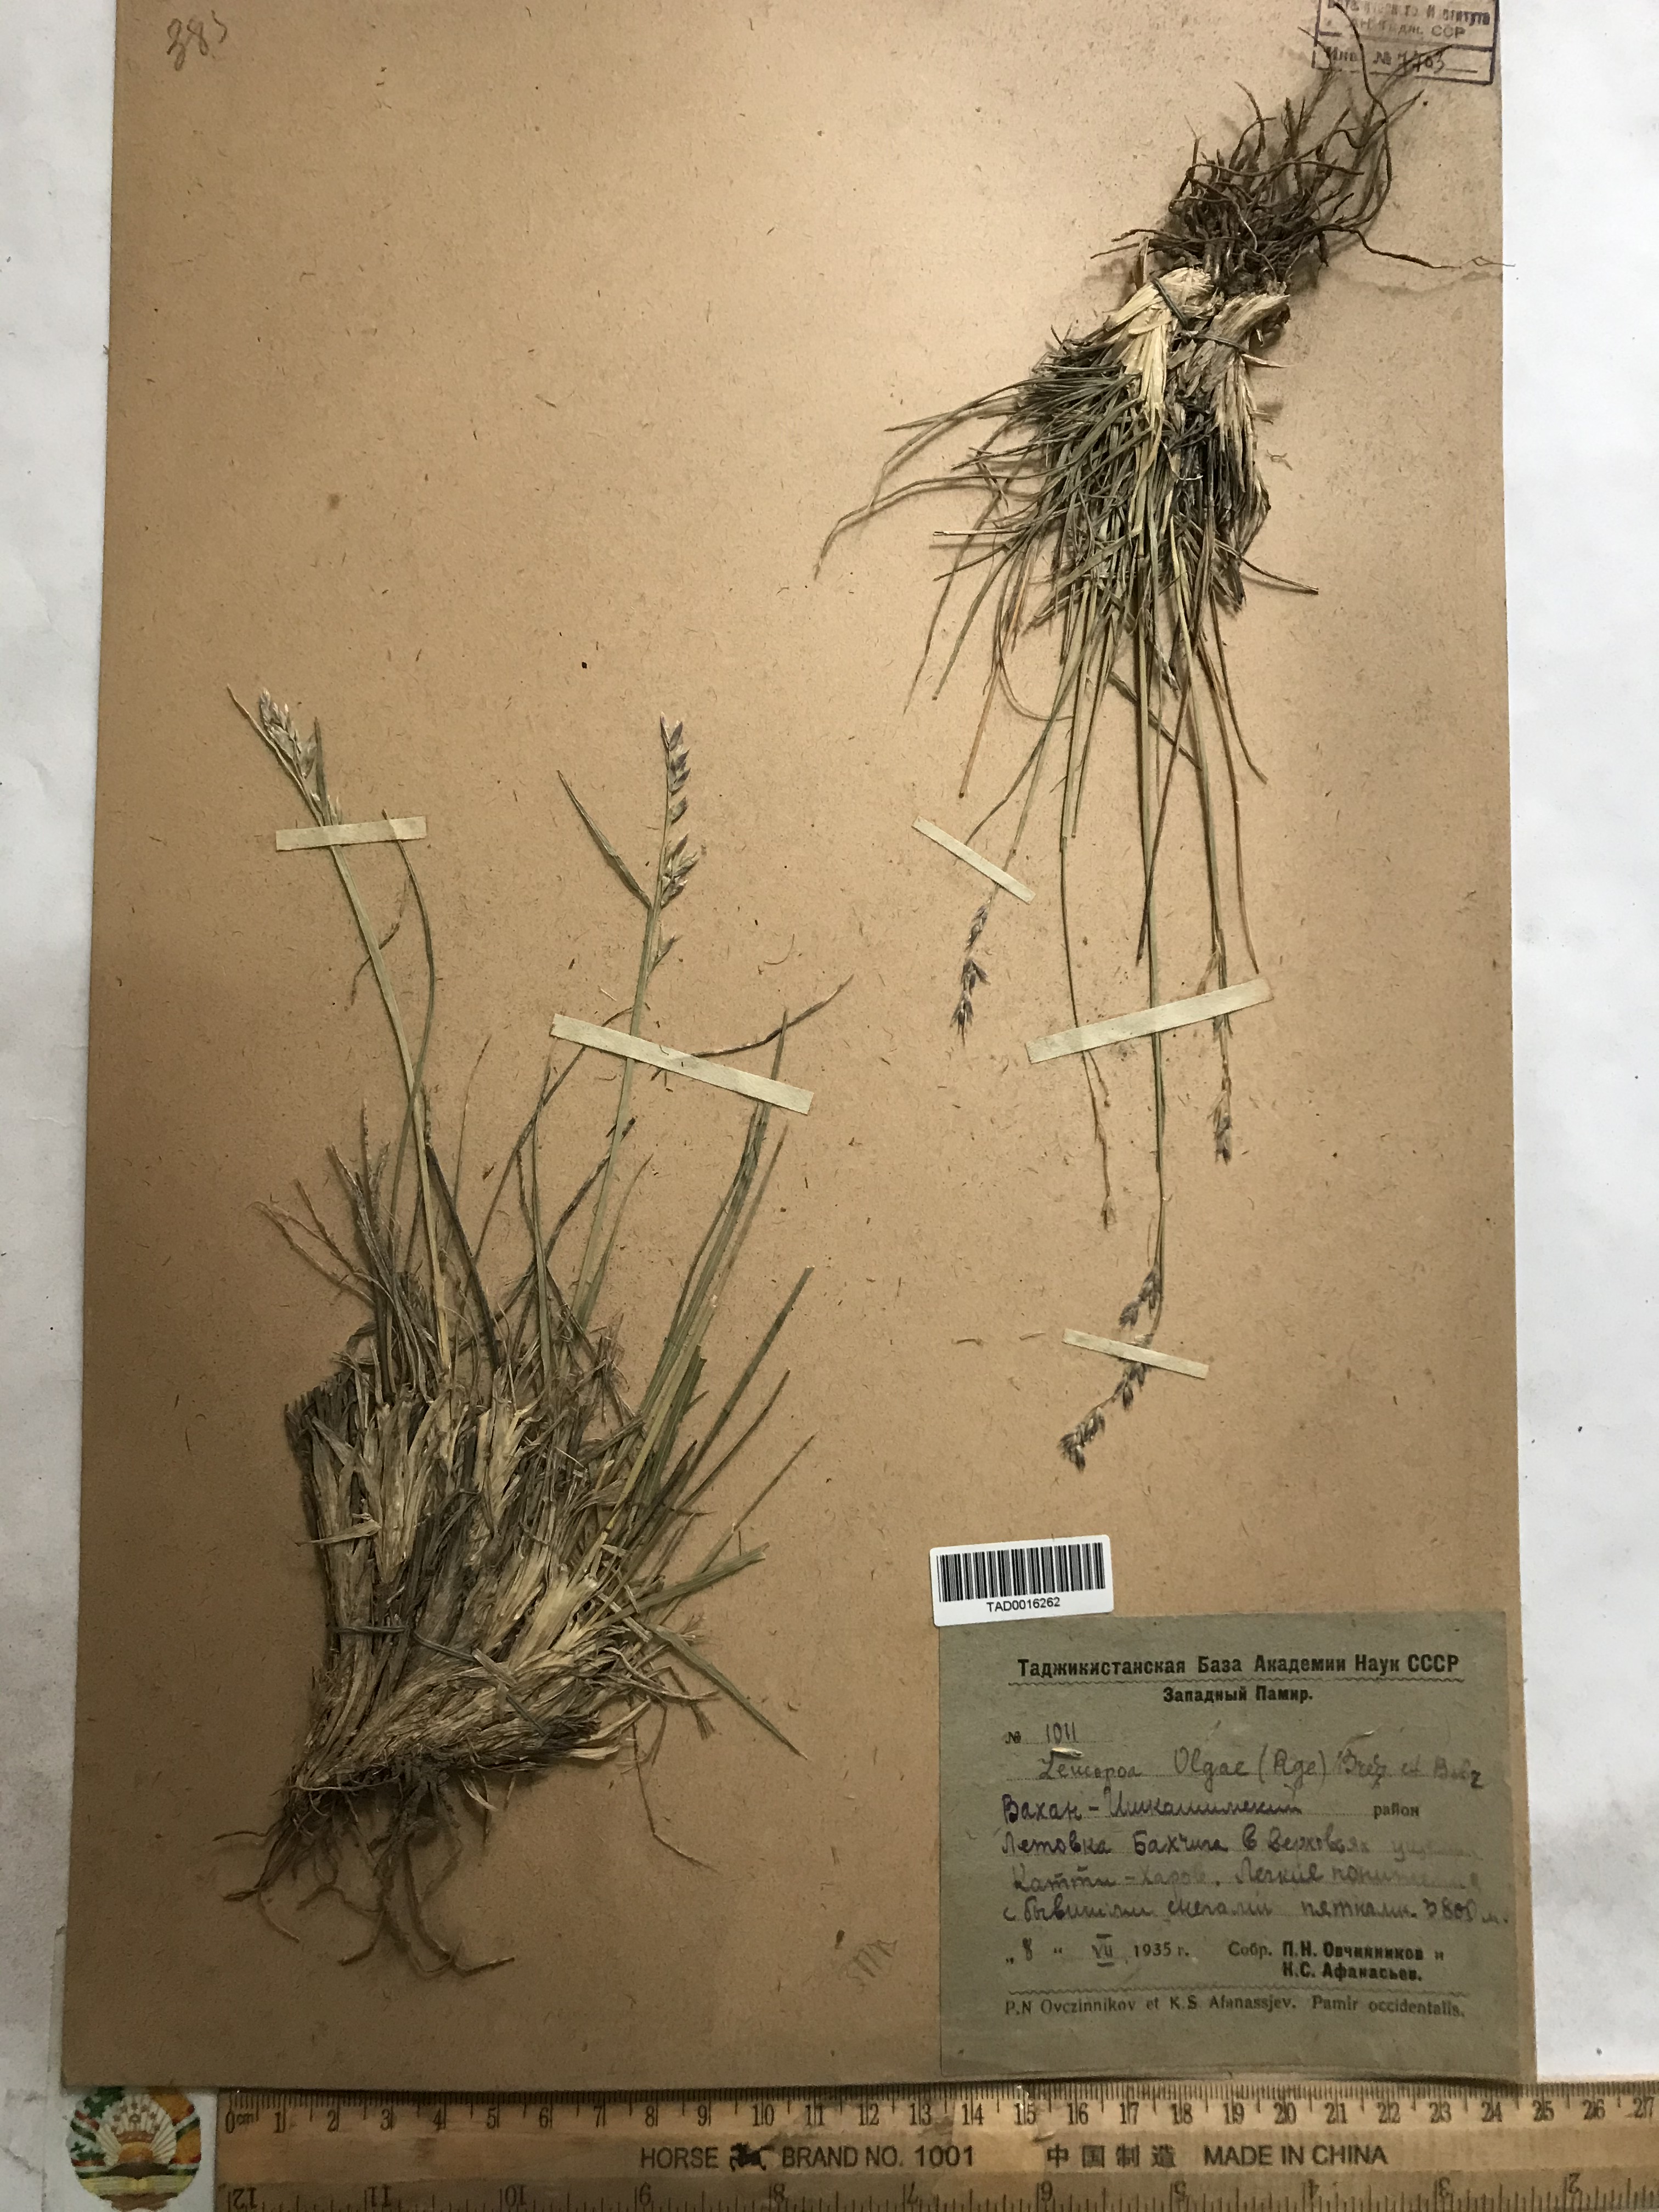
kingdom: Plantae
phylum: Tracheophyta
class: Liliopsida
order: Poales
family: Poaceae
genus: Festuca
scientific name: Festuca
